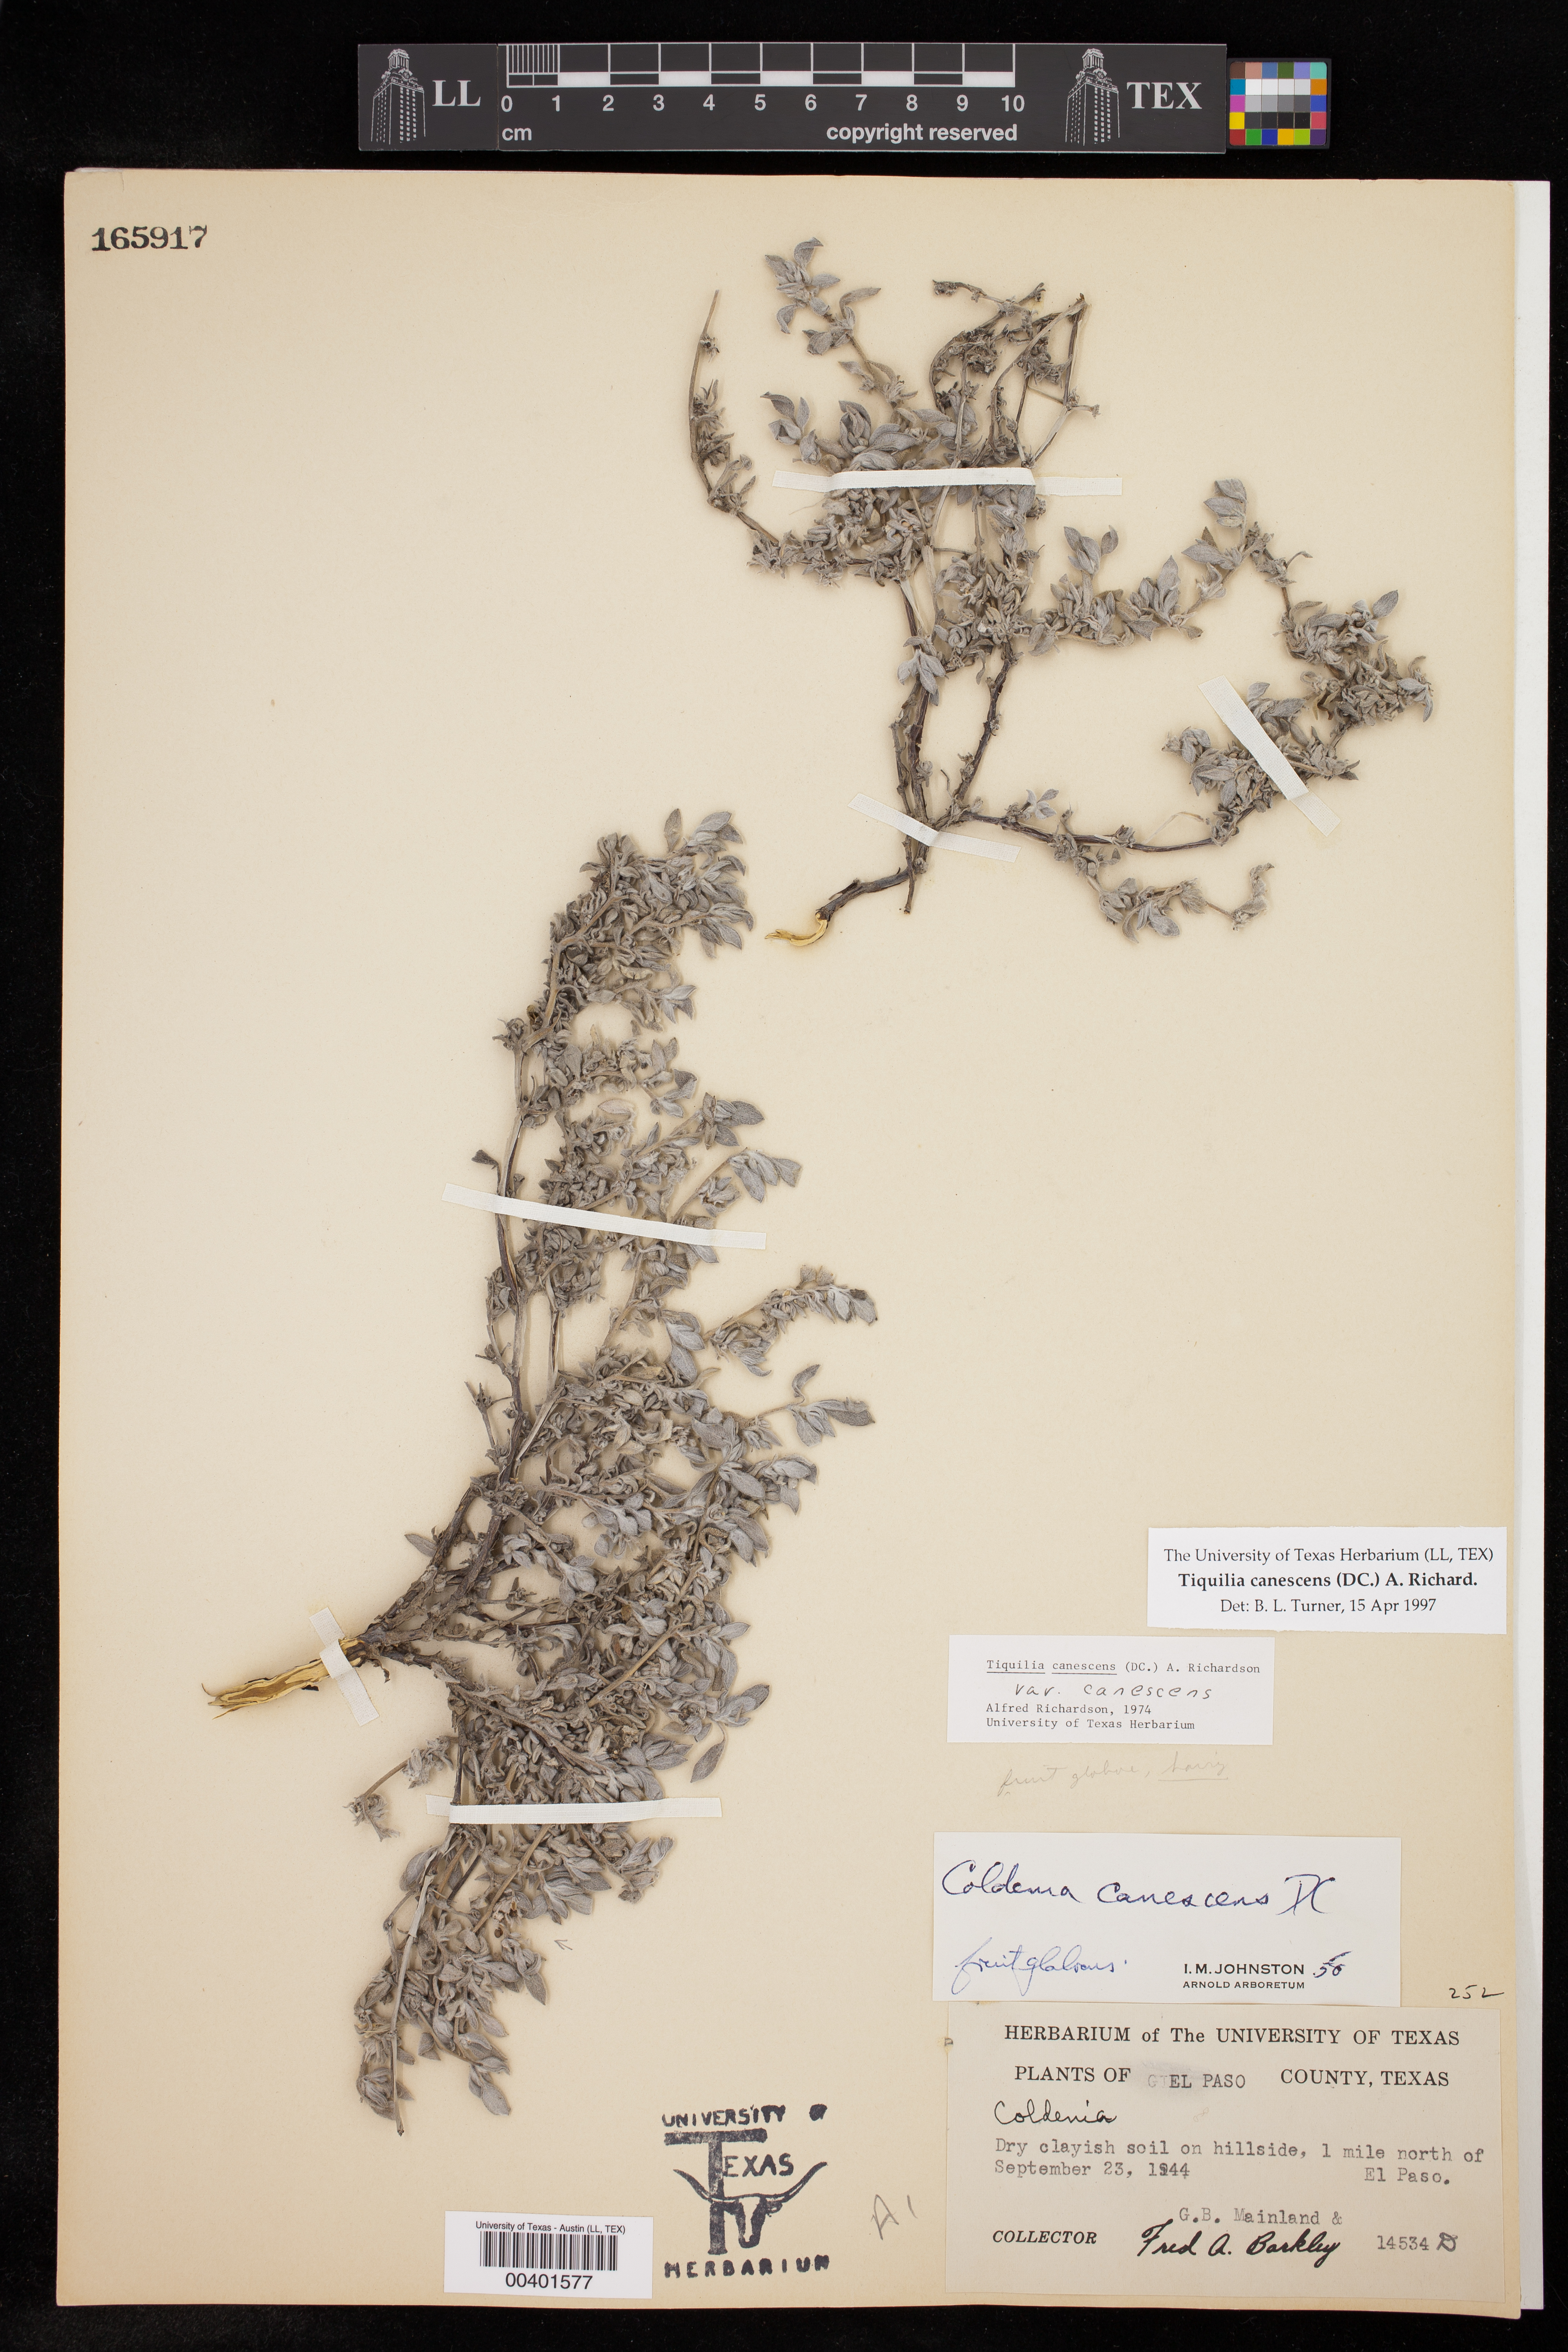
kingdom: Plantae
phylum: Tracheophyta
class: Magnoliopsida
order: Boraginales
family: Ehretiaceae
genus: Tiquilia
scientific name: Tiquilia canescens
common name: Hairy tiquilia
